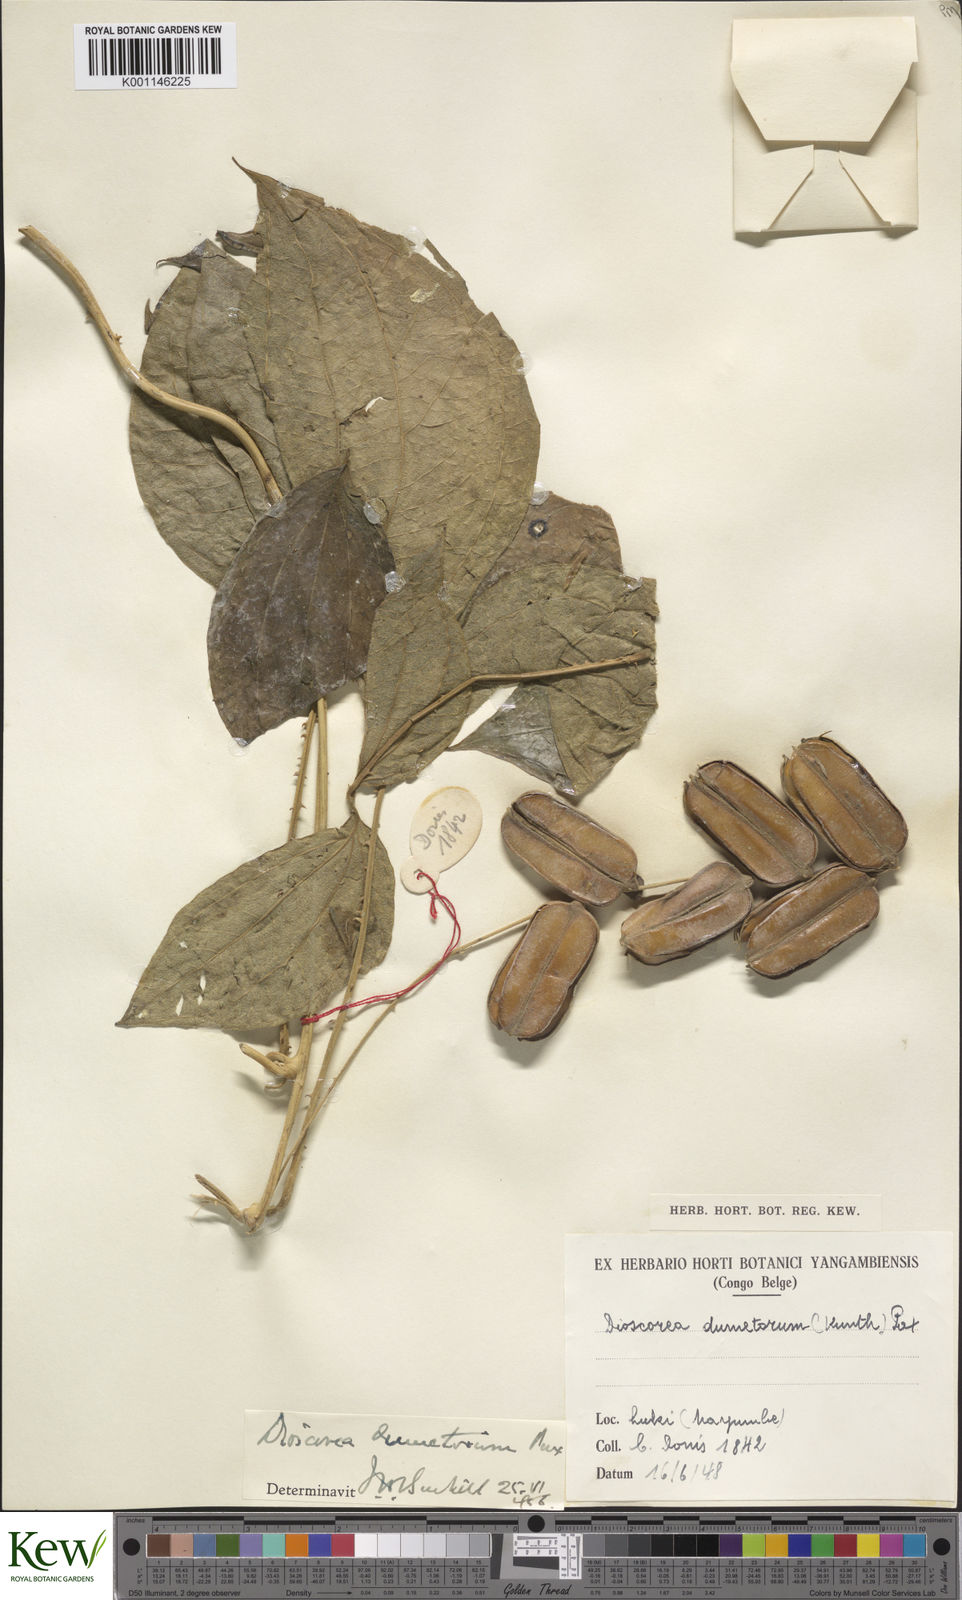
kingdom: Plantae
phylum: Tracheophyta
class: Liliopsida
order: Dioscoreales
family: Dioscoreaceae
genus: Dioscorea
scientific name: Dioscorea dumetorum
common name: African bitter yam
